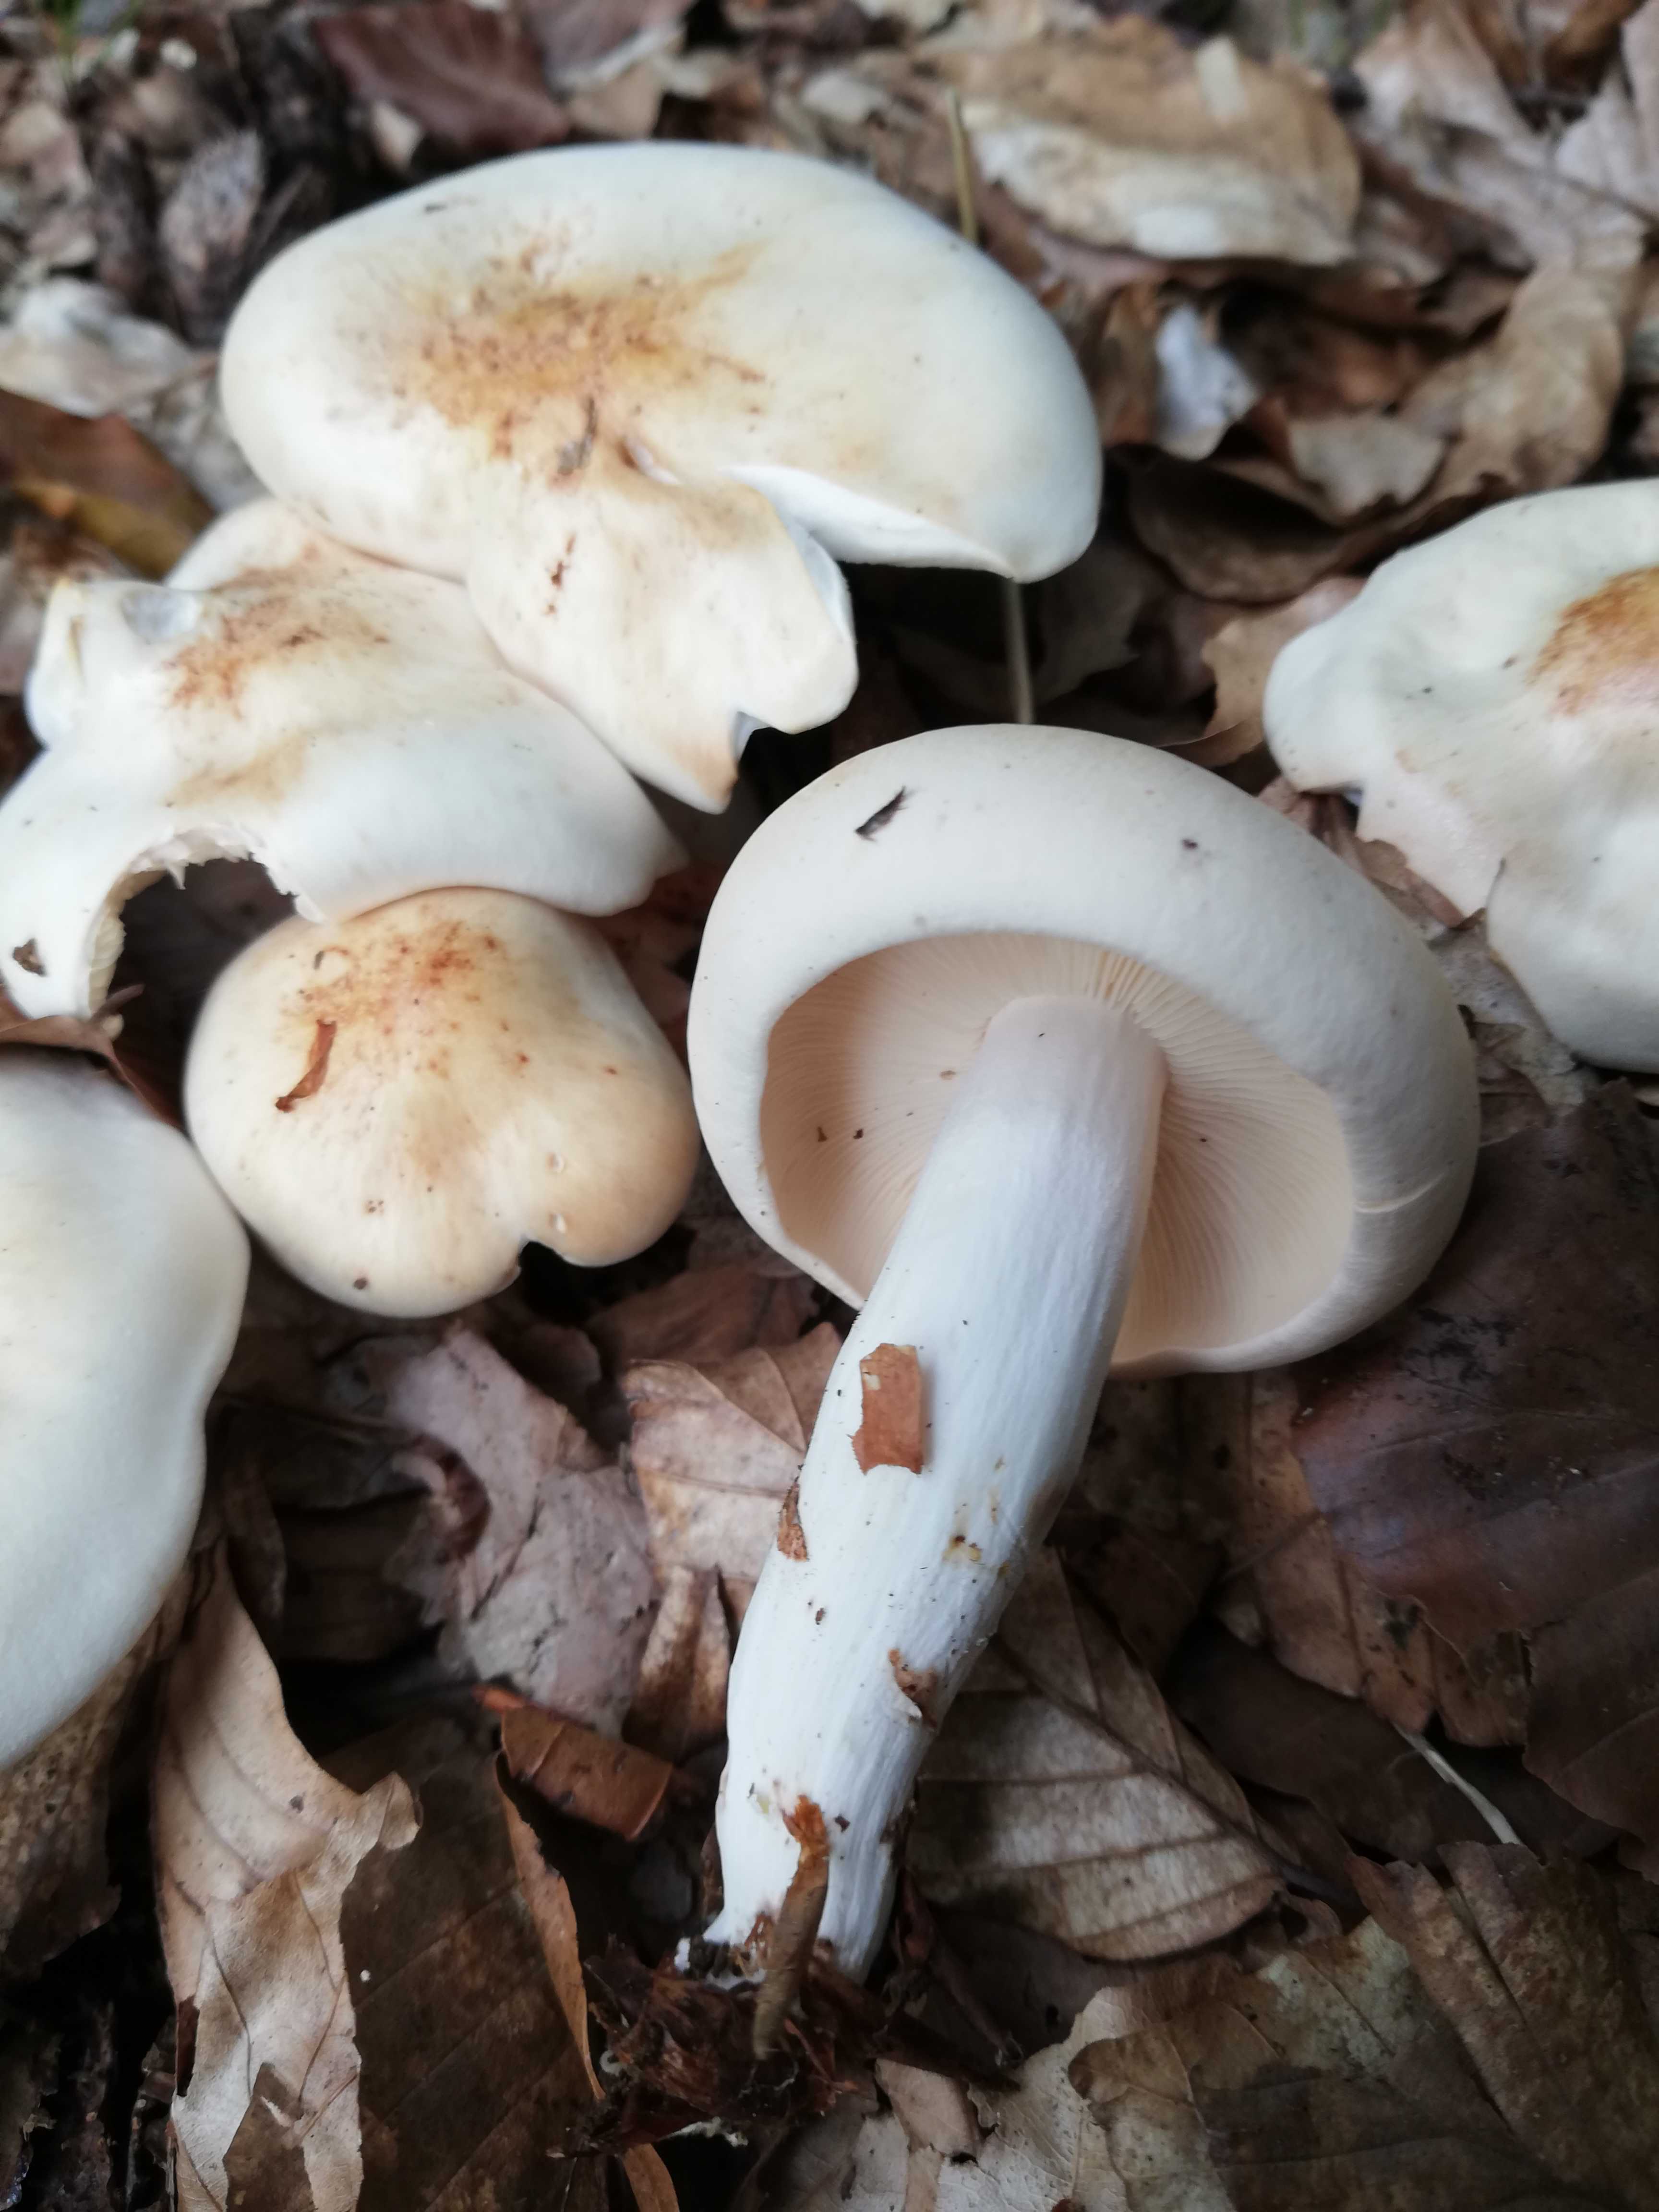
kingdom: Fungi
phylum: Basidiomycota
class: Agaricomycetes
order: Agaricales
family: Omphalotaceae
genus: Rhodocollybia
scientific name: Rhodocollybia maculata
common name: plettet fladhat
